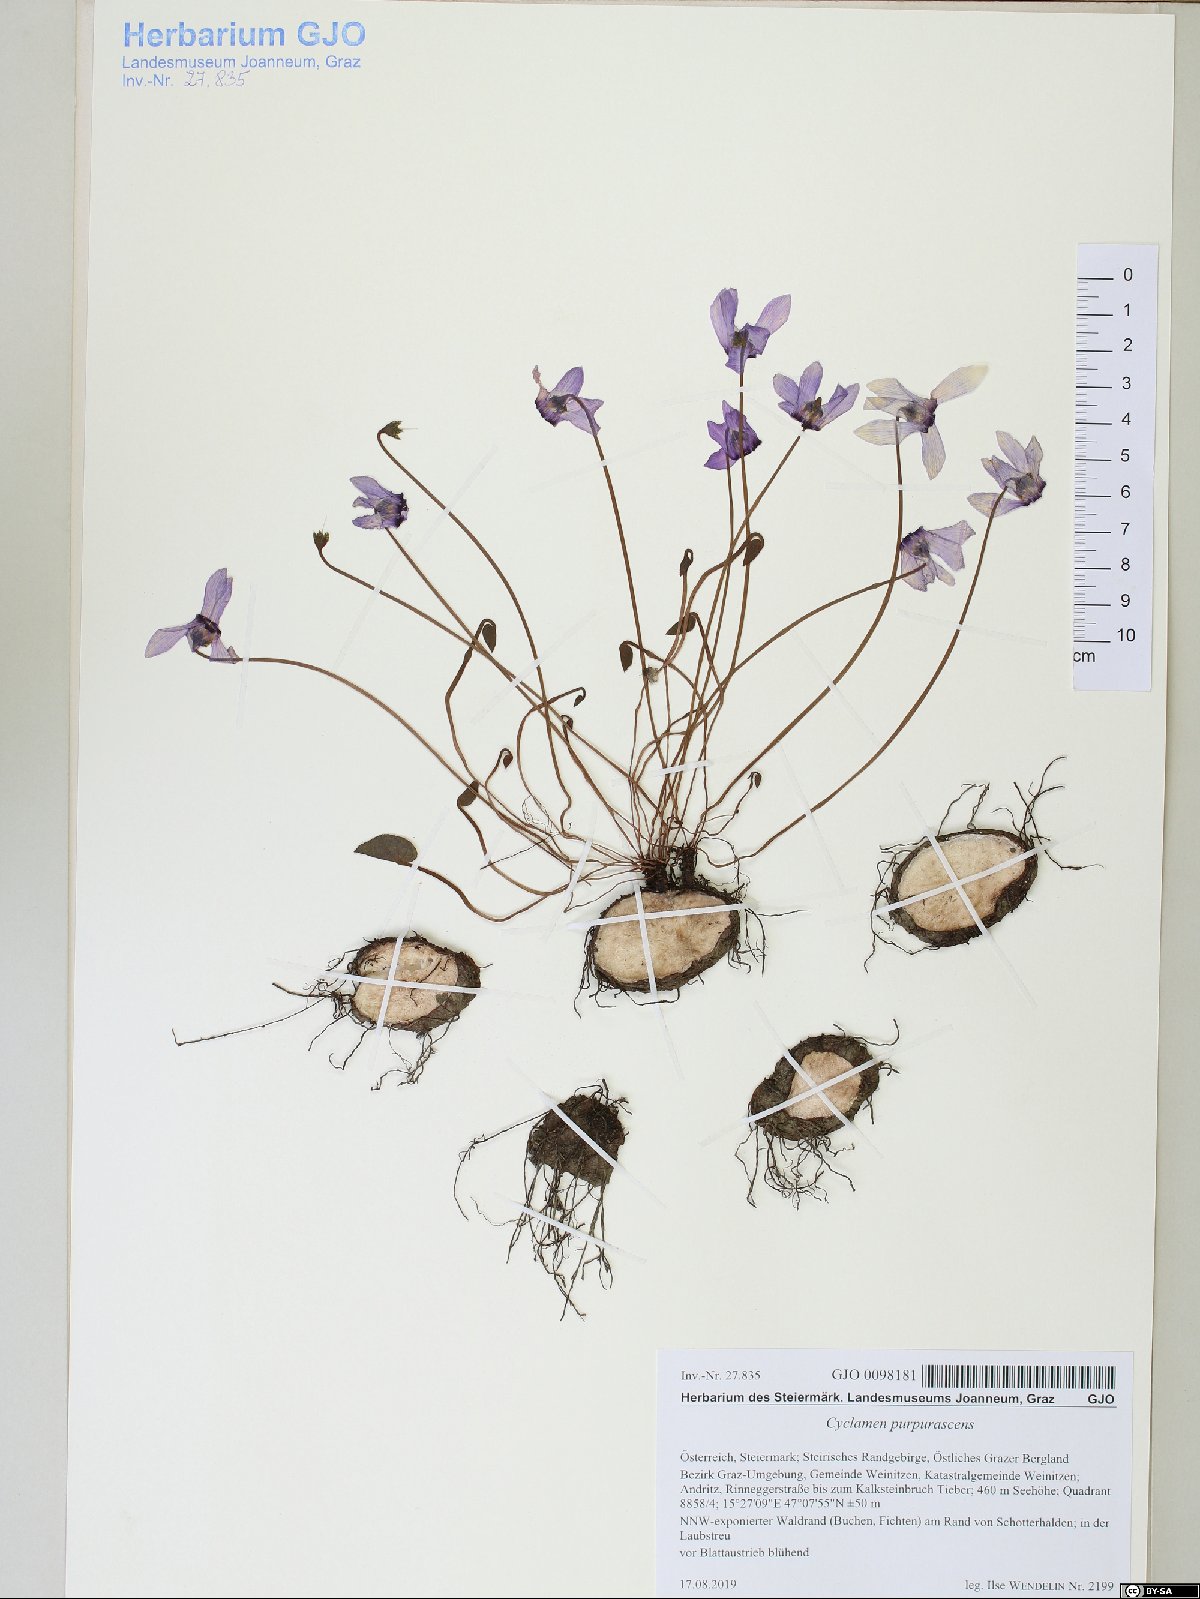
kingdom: Plantae
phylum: Tracheophyta
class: Magnoliopsida
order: Ericales
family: Primulaceae
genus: Cyclamen
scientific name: Cyclamen purpurascens
